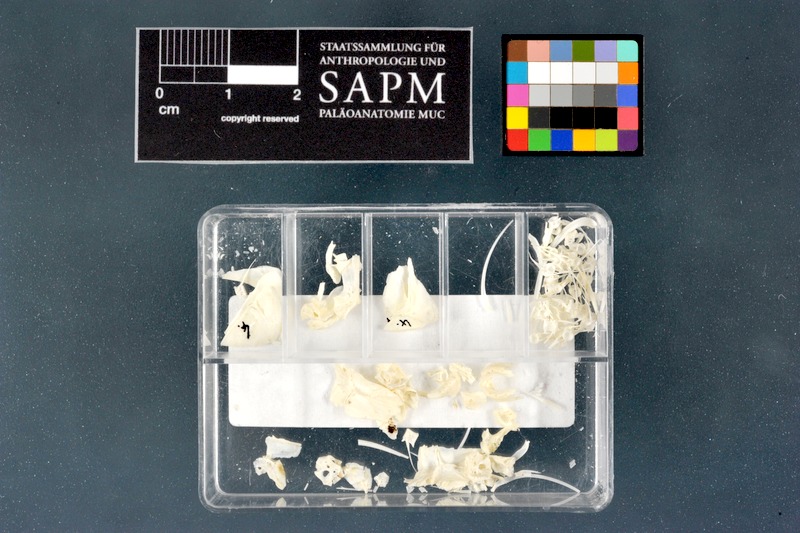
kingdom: Animalia
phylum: Chordata
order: Characiformes
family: Alestidae
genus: Brycinus
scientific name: Brycinus macrolepidotus
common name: Characin
